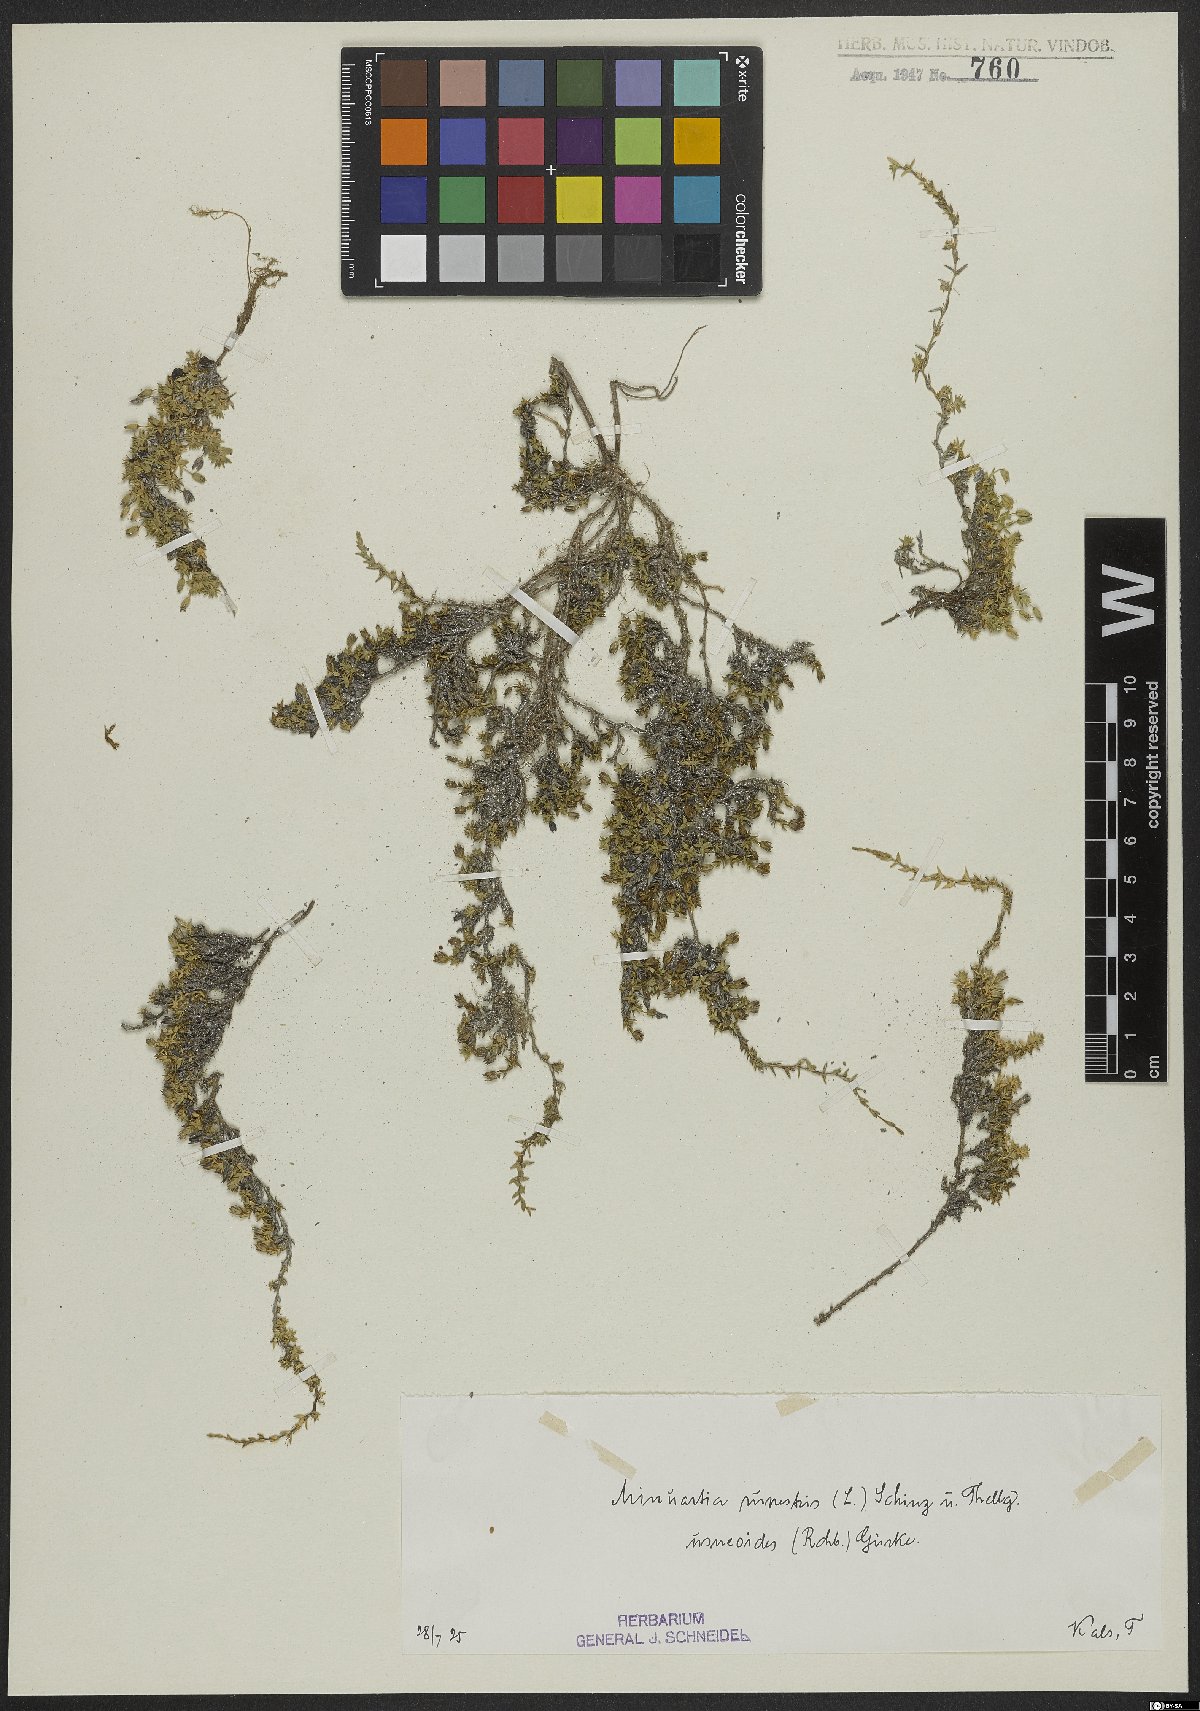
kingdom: Plantae
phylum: Tracheophyta
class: Magnoliopsida
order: Caryophyllales
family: Caryophyllaceae
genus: Facchinia
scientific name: Facchinia rupestris
